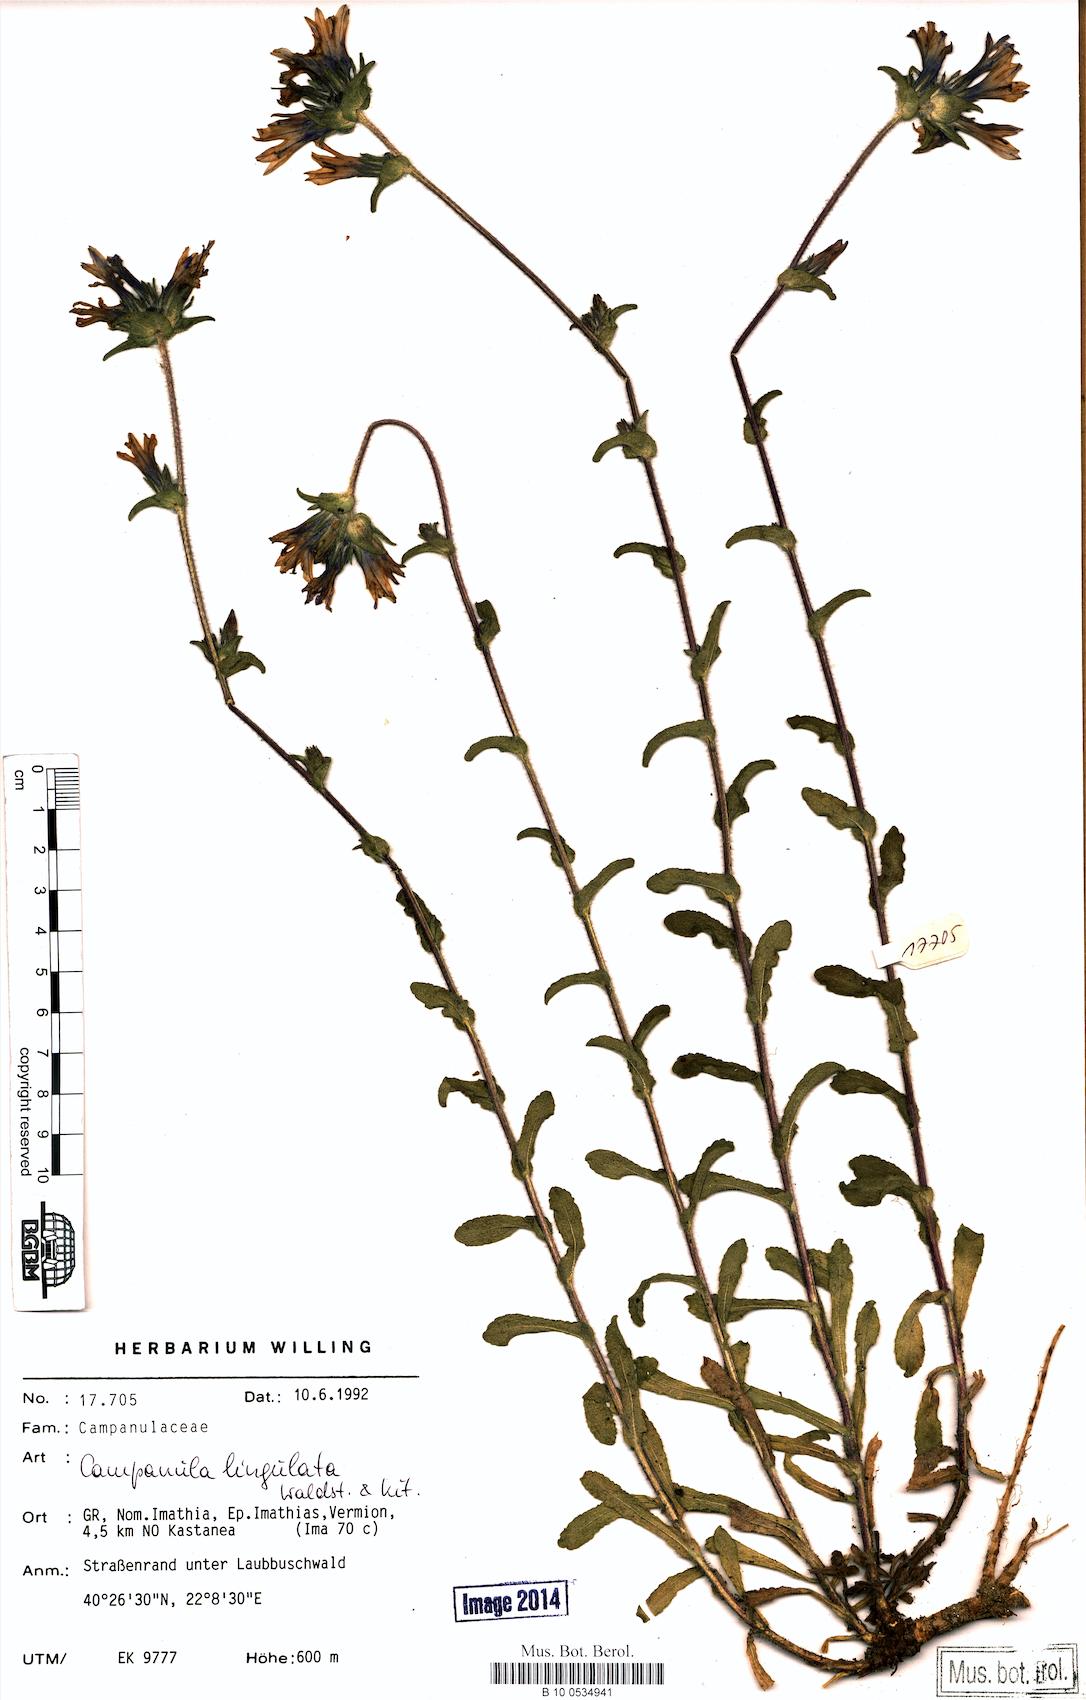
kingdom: Plantae
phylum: Tracheophyta
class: Magnoliopsida
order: Asterales
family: Campanulaceae
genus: Campanula
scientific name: Campanula lingulata
